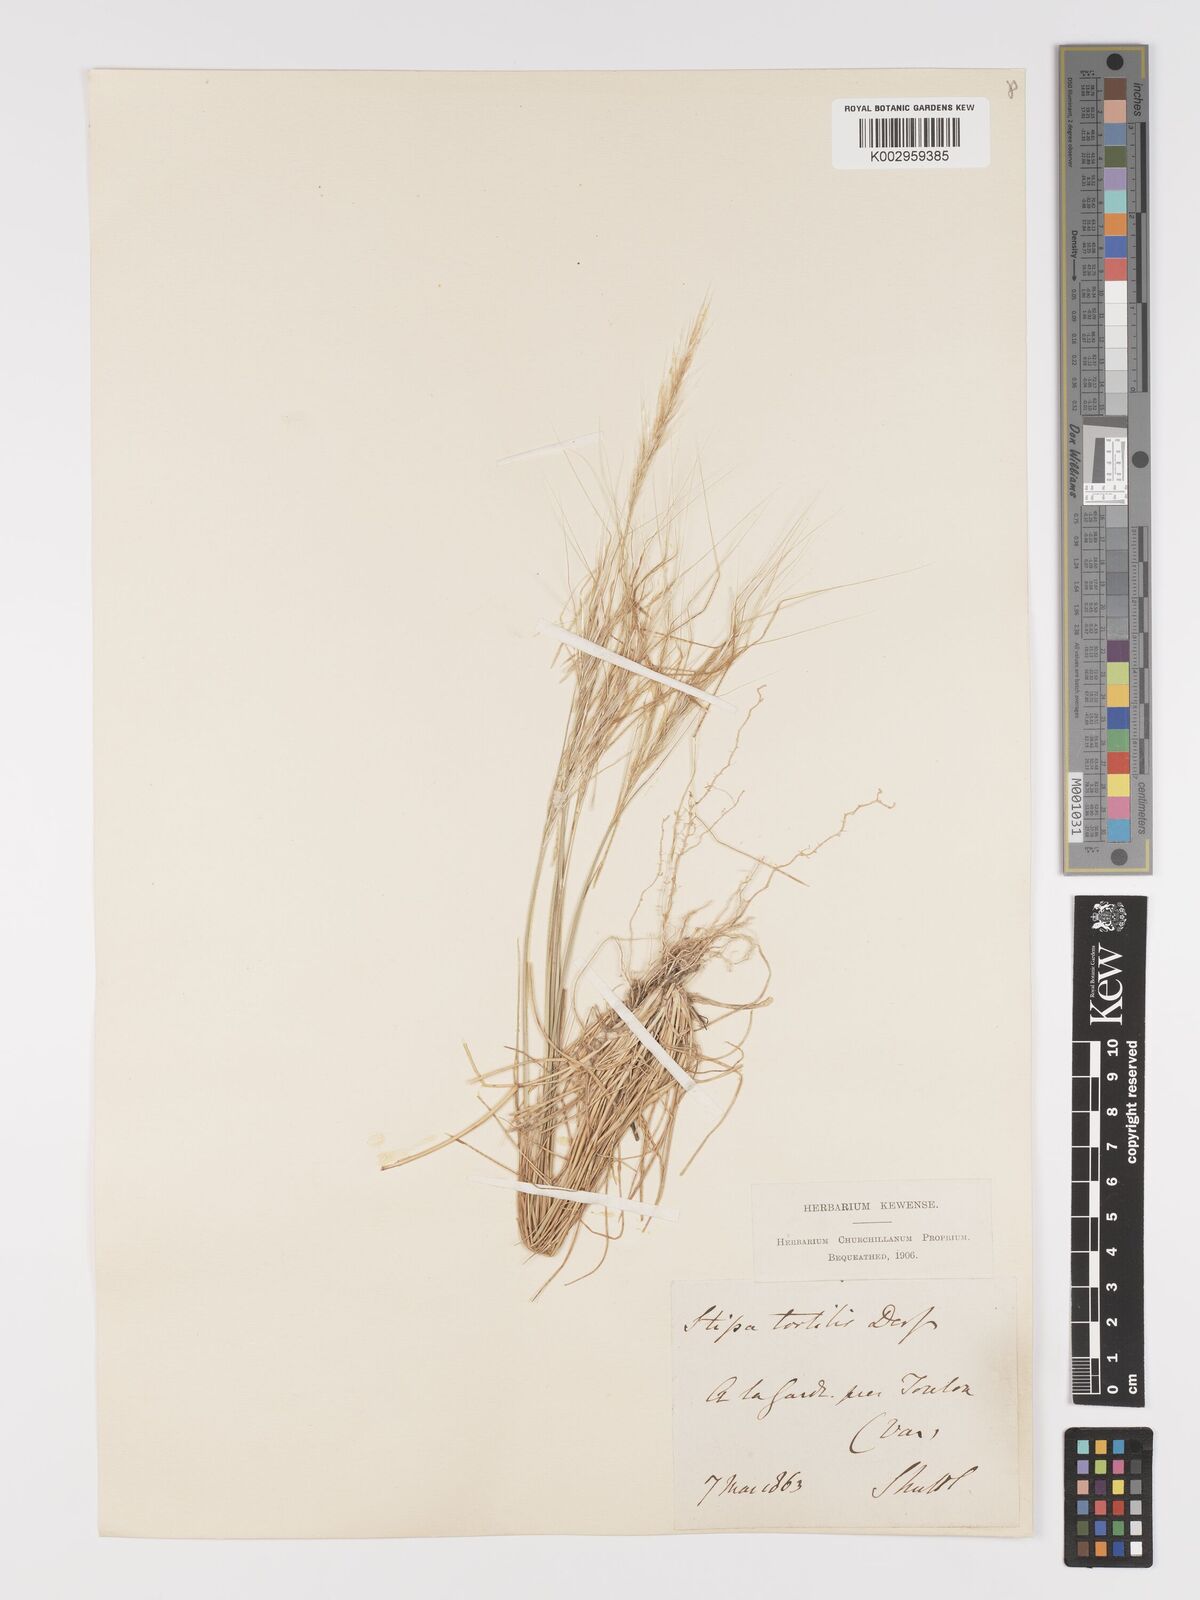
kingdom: Plantae
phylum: Tracheophyta
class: Liliopsida
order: Poales
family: Poaceae
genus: Stipellula
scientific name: Stipellula capensis
